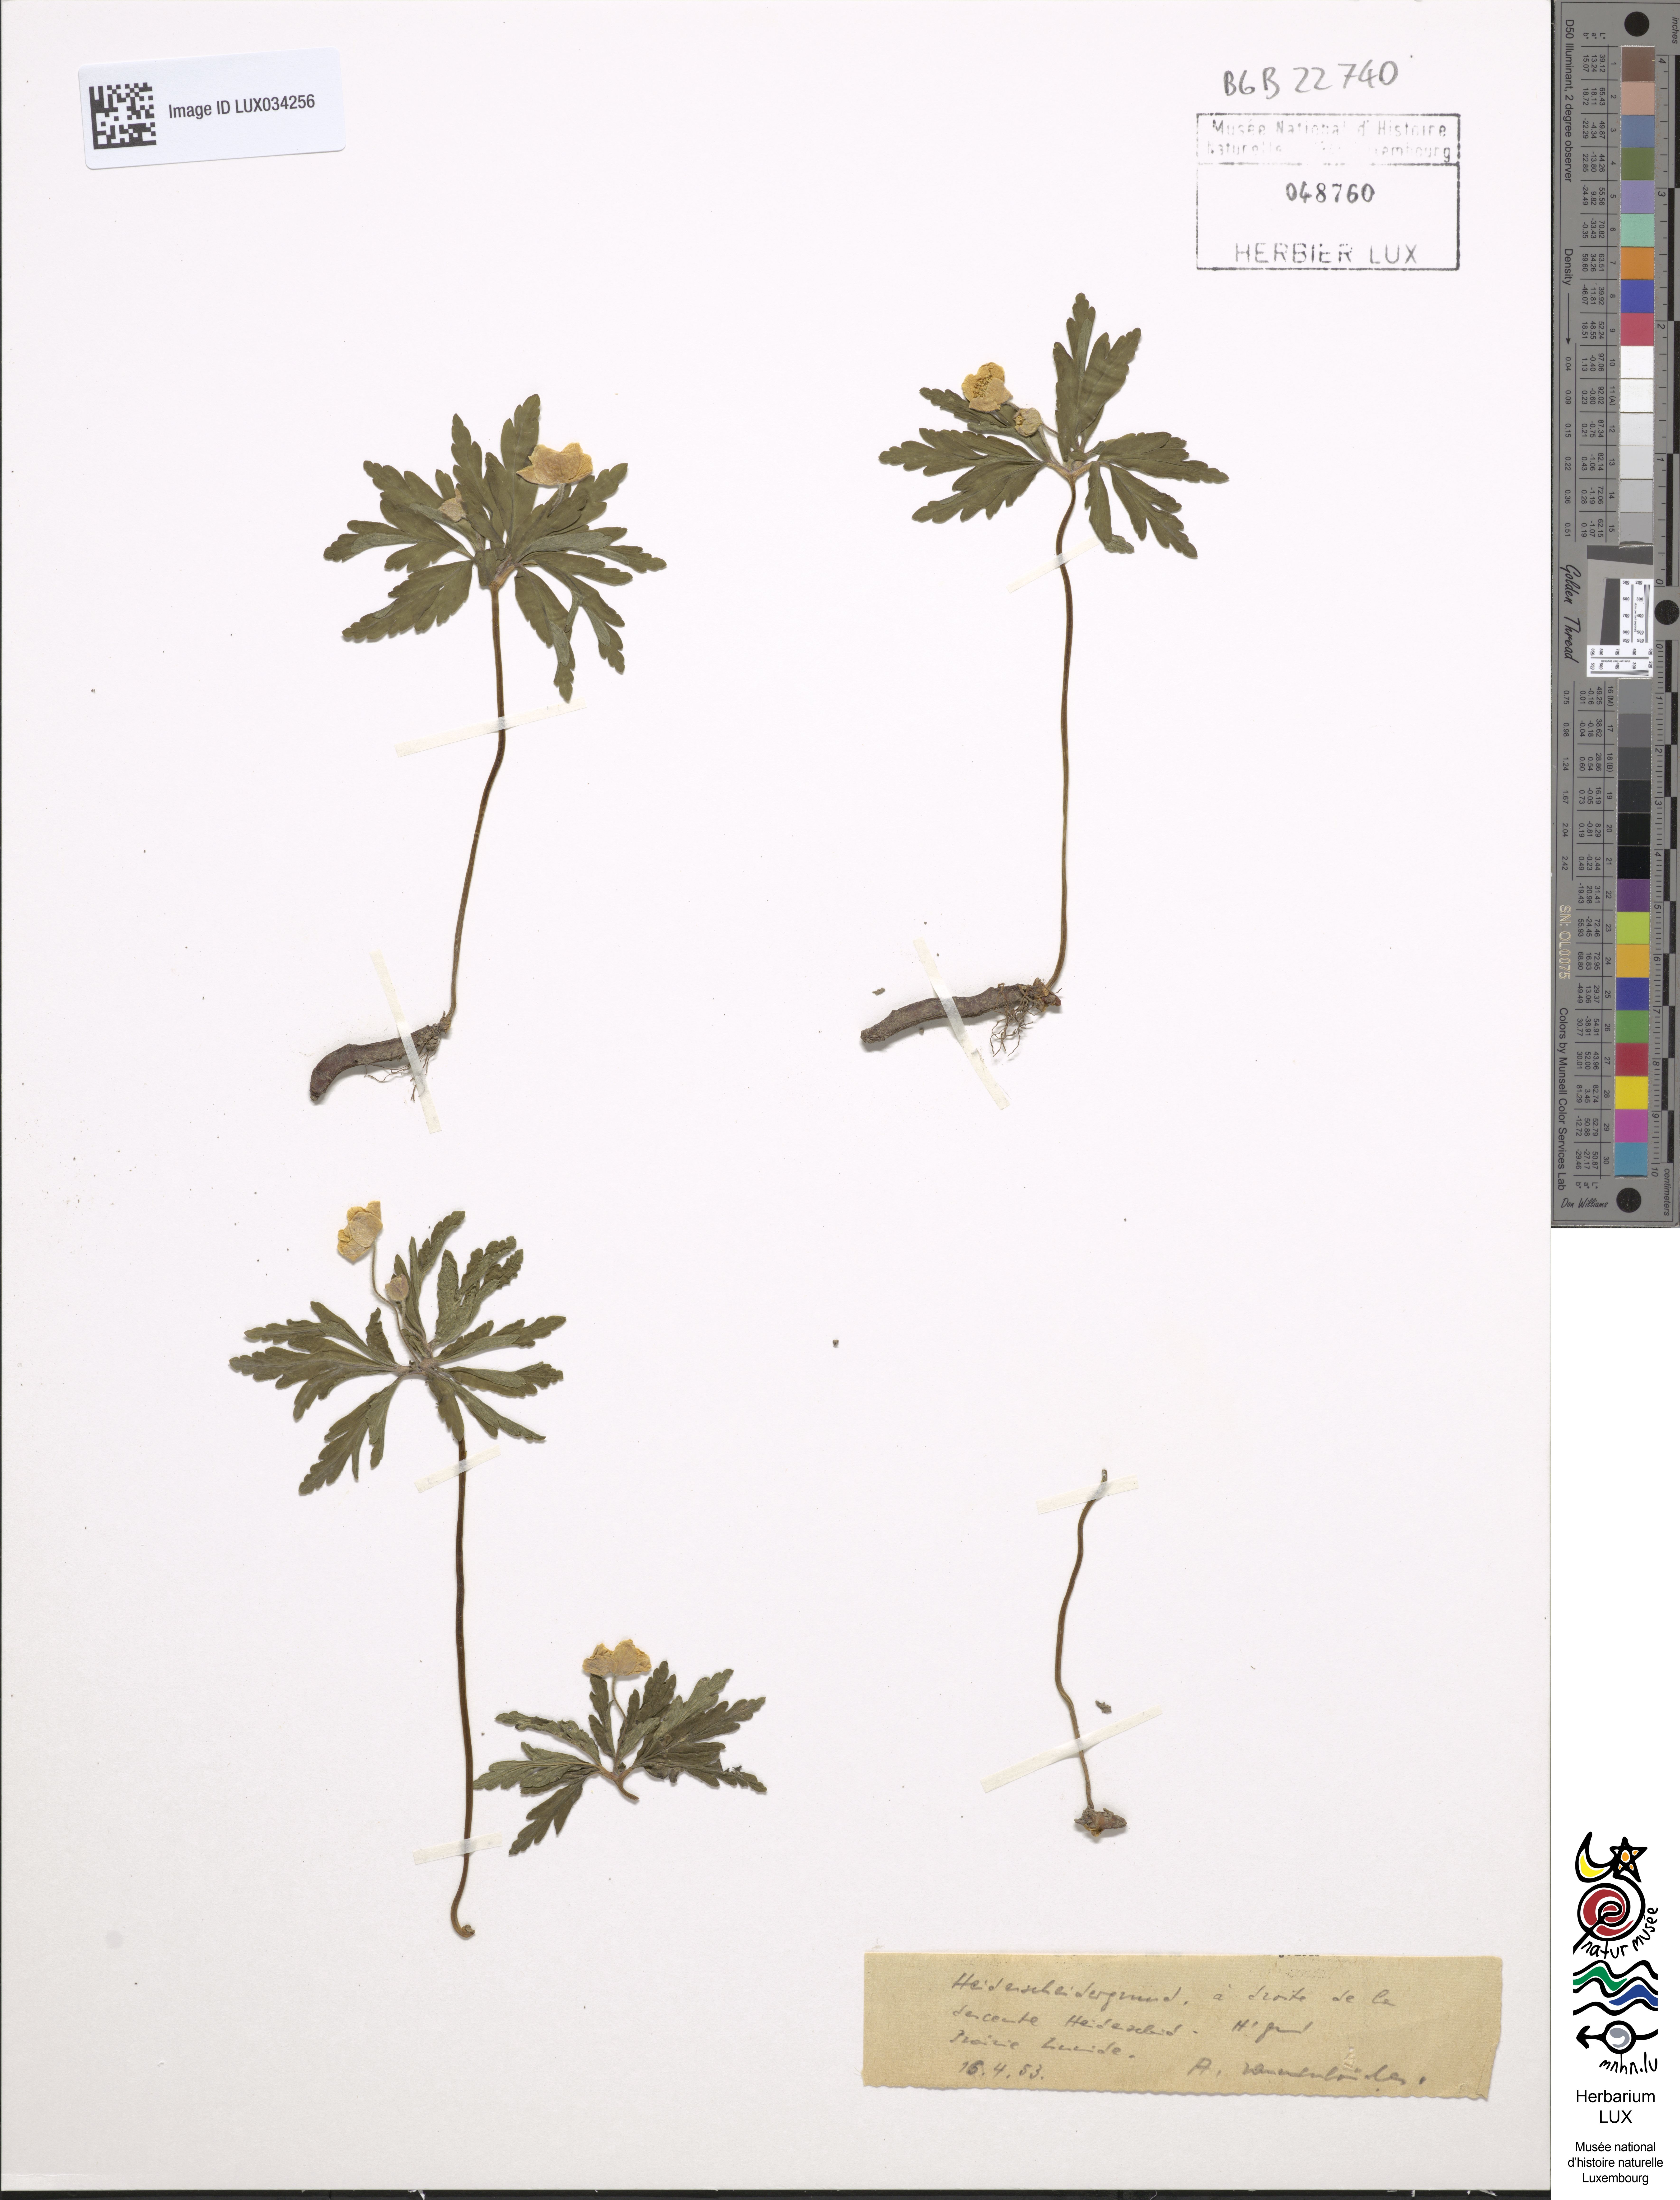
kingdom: Plantae
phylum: Tracheophyta
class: Magnoliopsida
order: Ranunculales
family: Ranunculaceae
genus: Anemone
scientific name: Anemone ranunculoides
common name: Yellow anemone
